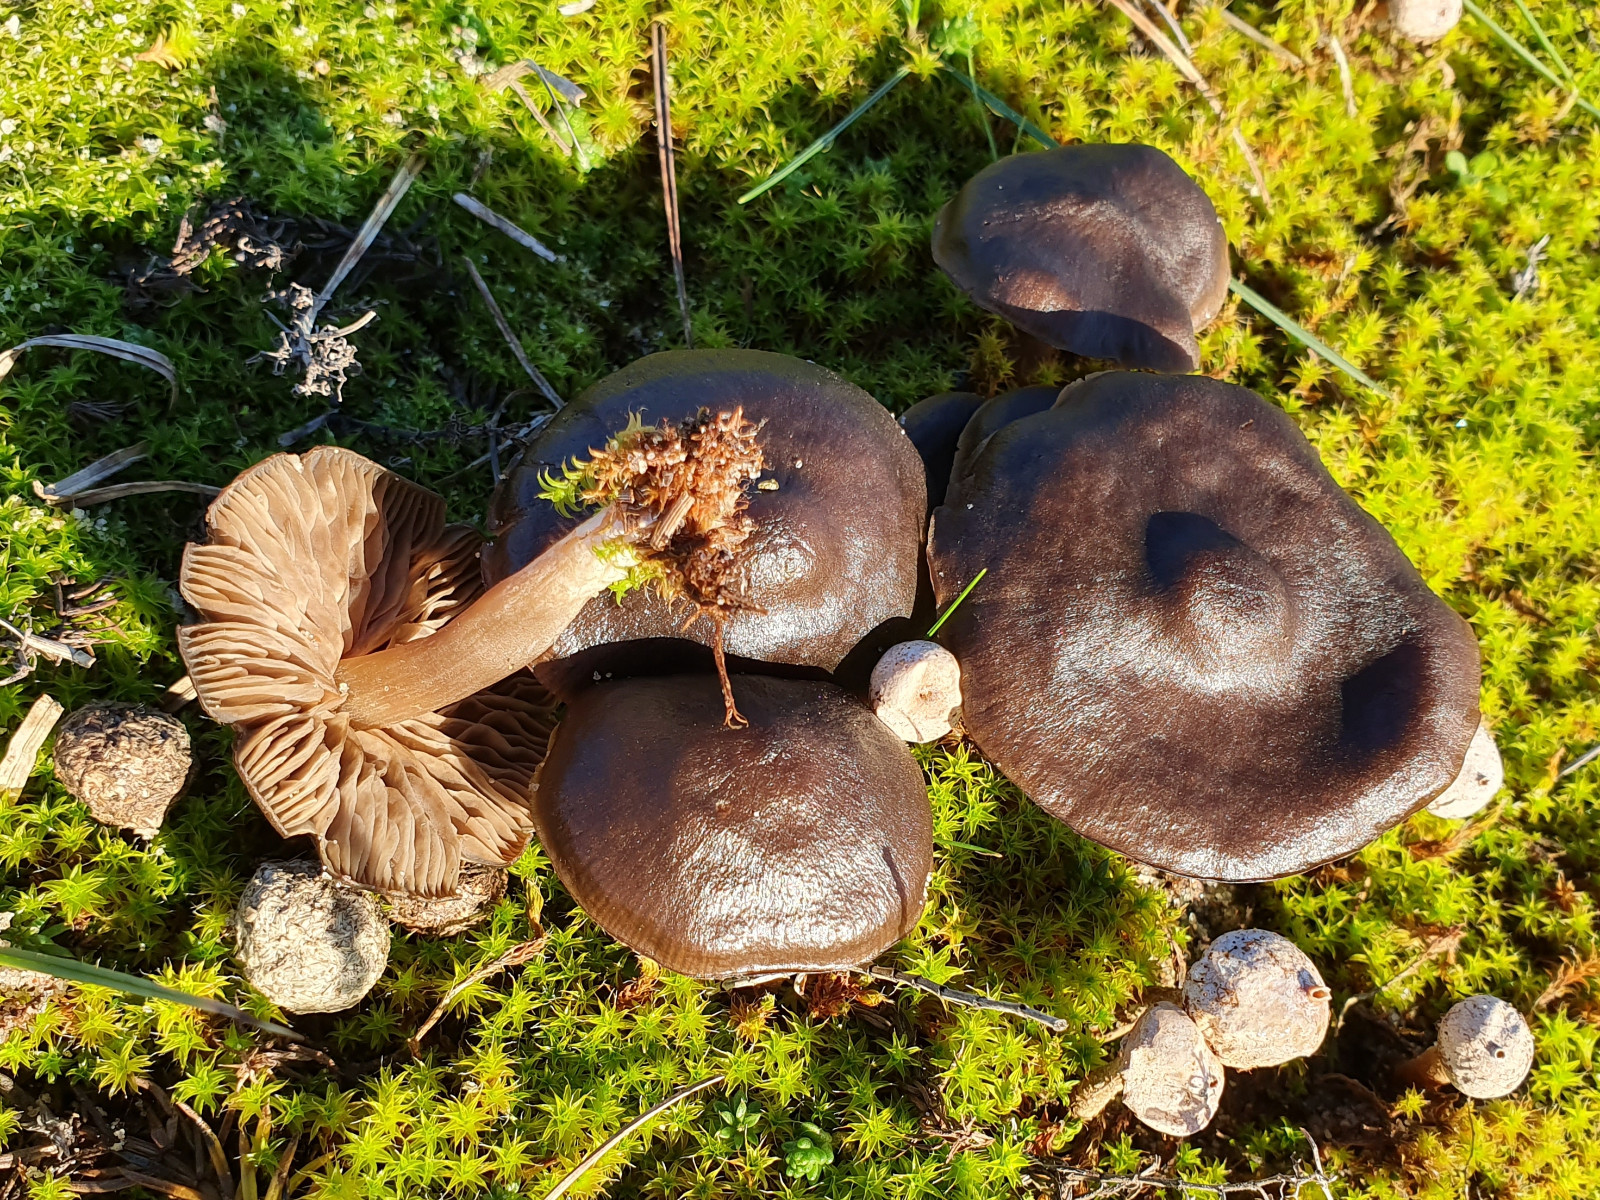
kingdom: Fungi
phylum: Basidiomycota
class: Agaricomycetes
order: Agaricales
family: Entolomataceae
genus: Entoloma
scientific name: Entoloma
